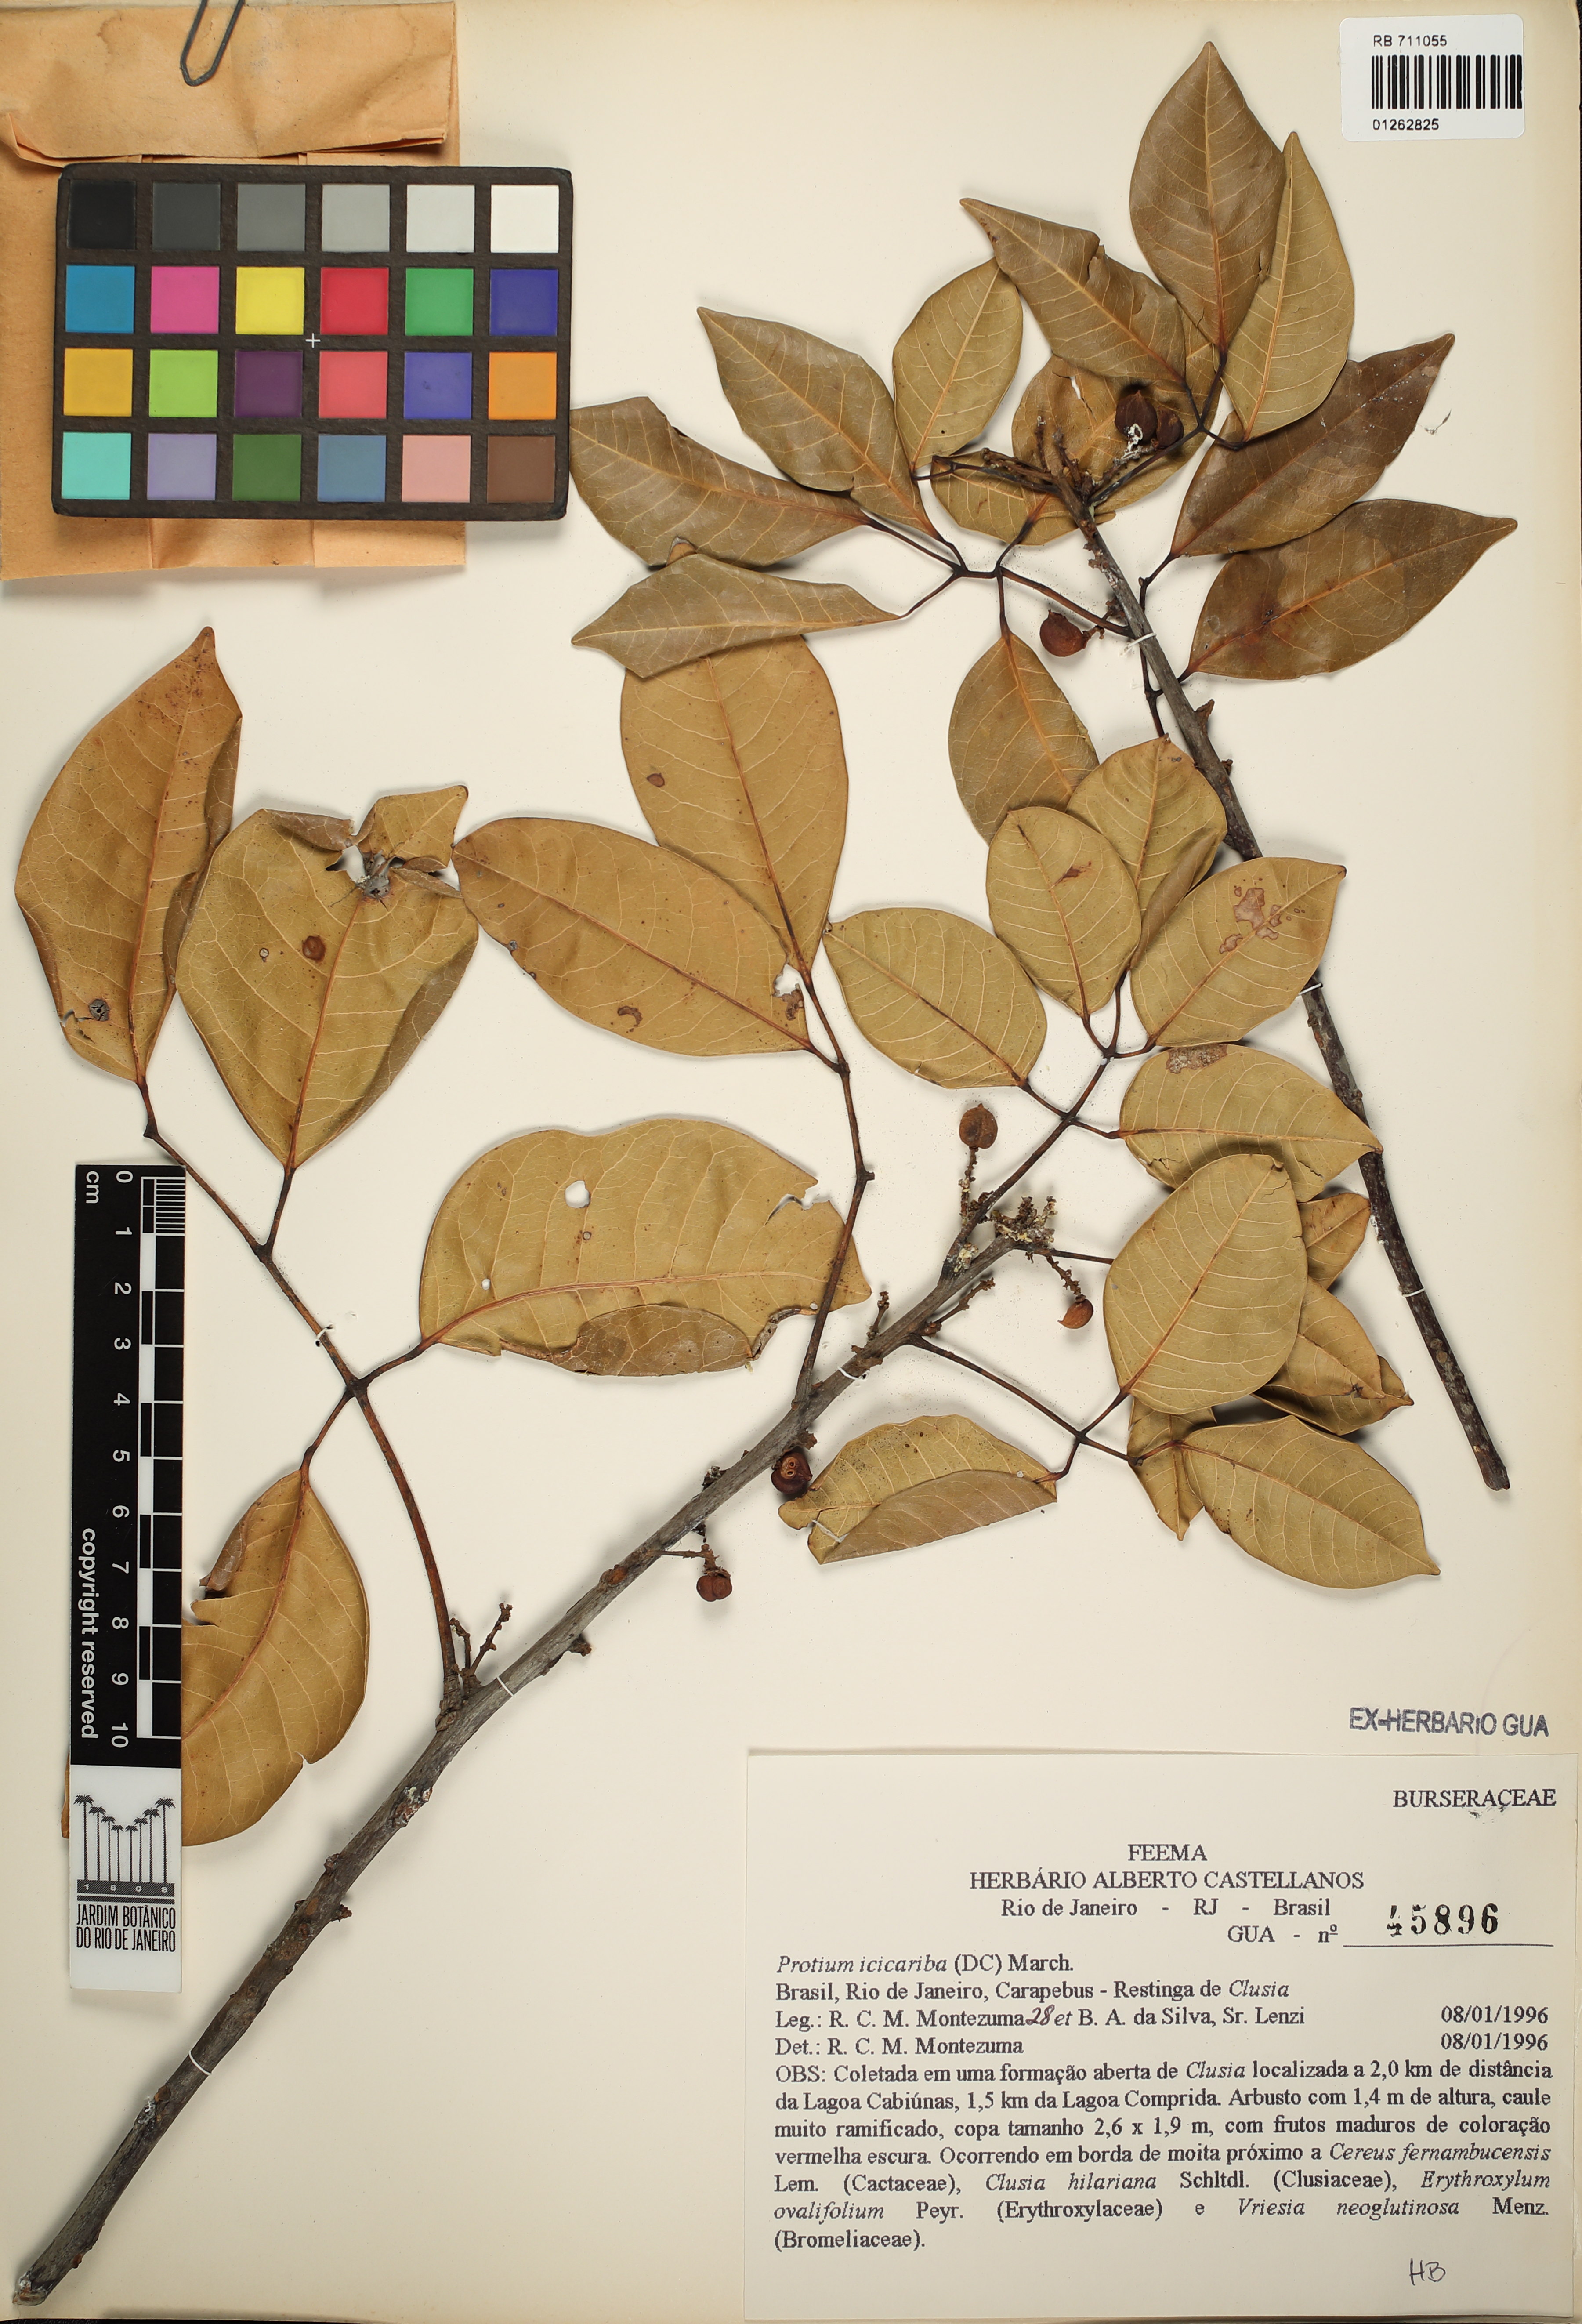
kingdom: Plantae
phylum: Tracheophyta
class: Magnoliopsida
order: Sapindales
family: Burseraceae
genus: Protium
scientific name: Protium icicariba
